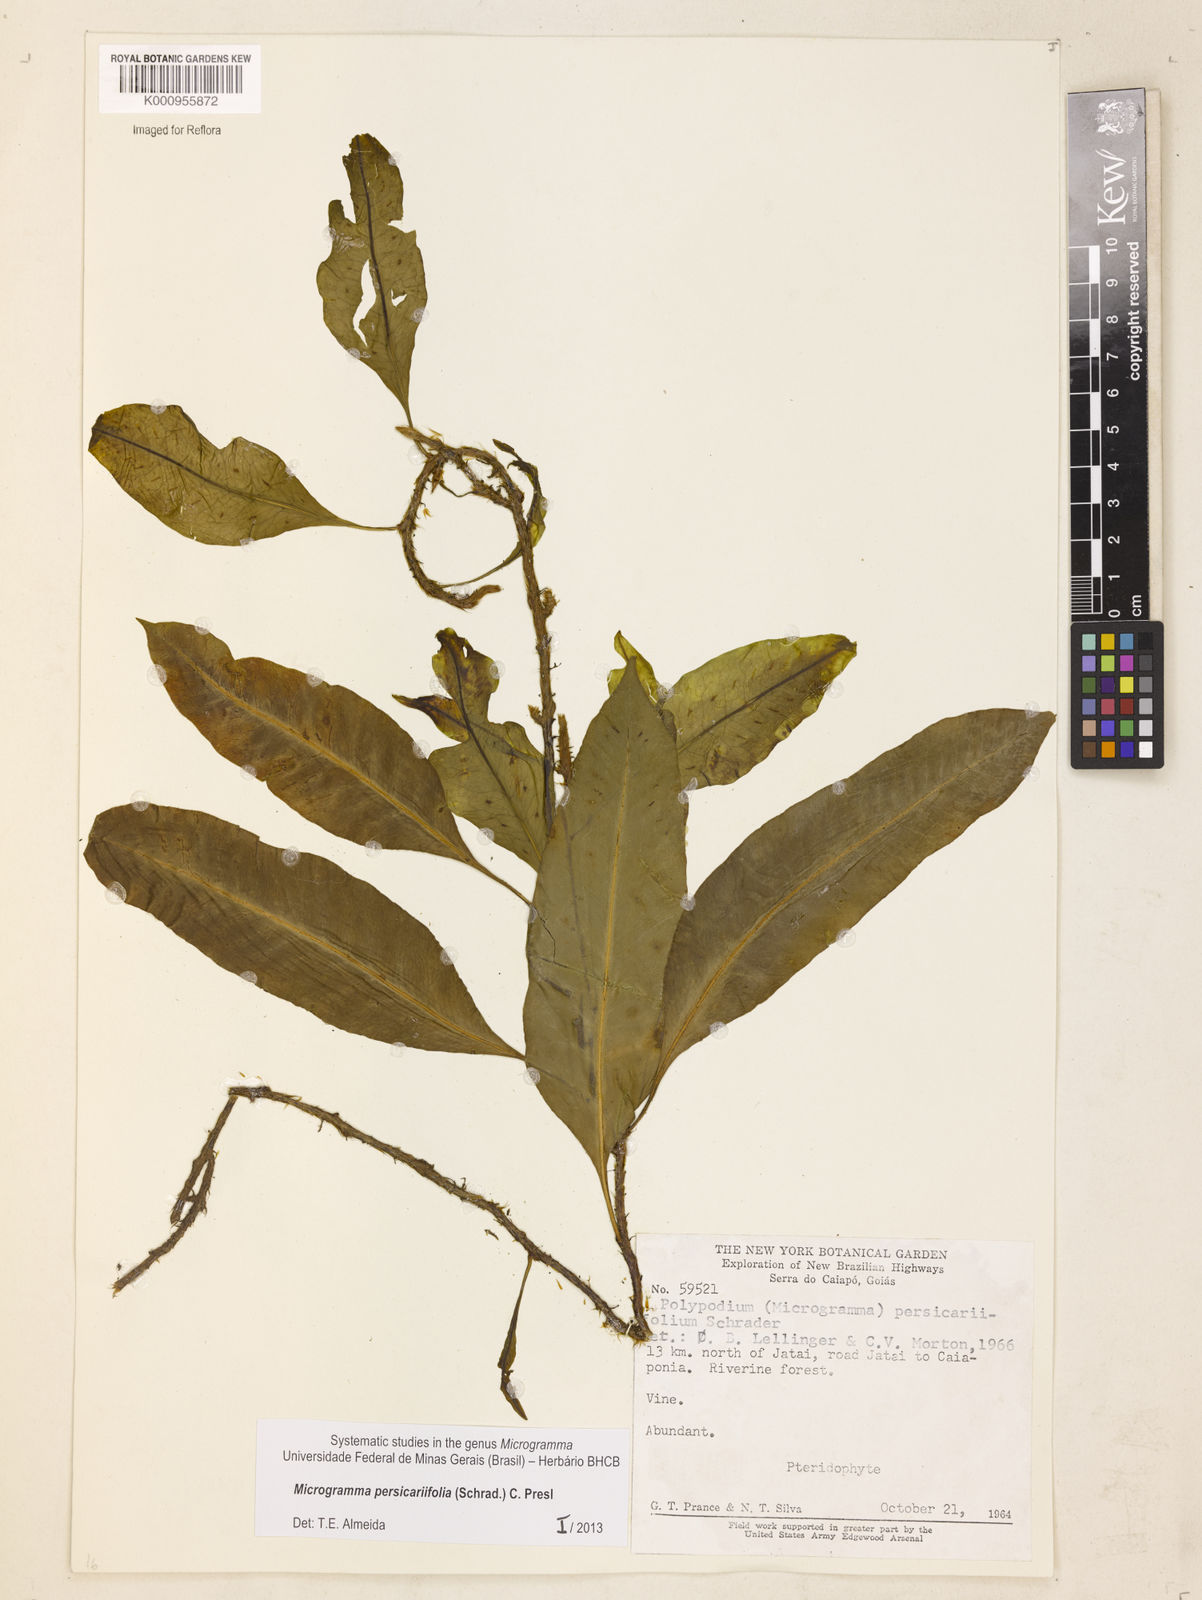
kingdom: Plantae
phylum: Tracheophyta
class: Polypodiopsida
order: Polypodiales
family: Polypodiaceae
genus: Microgramma
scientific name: Microgramma persicariifolia
